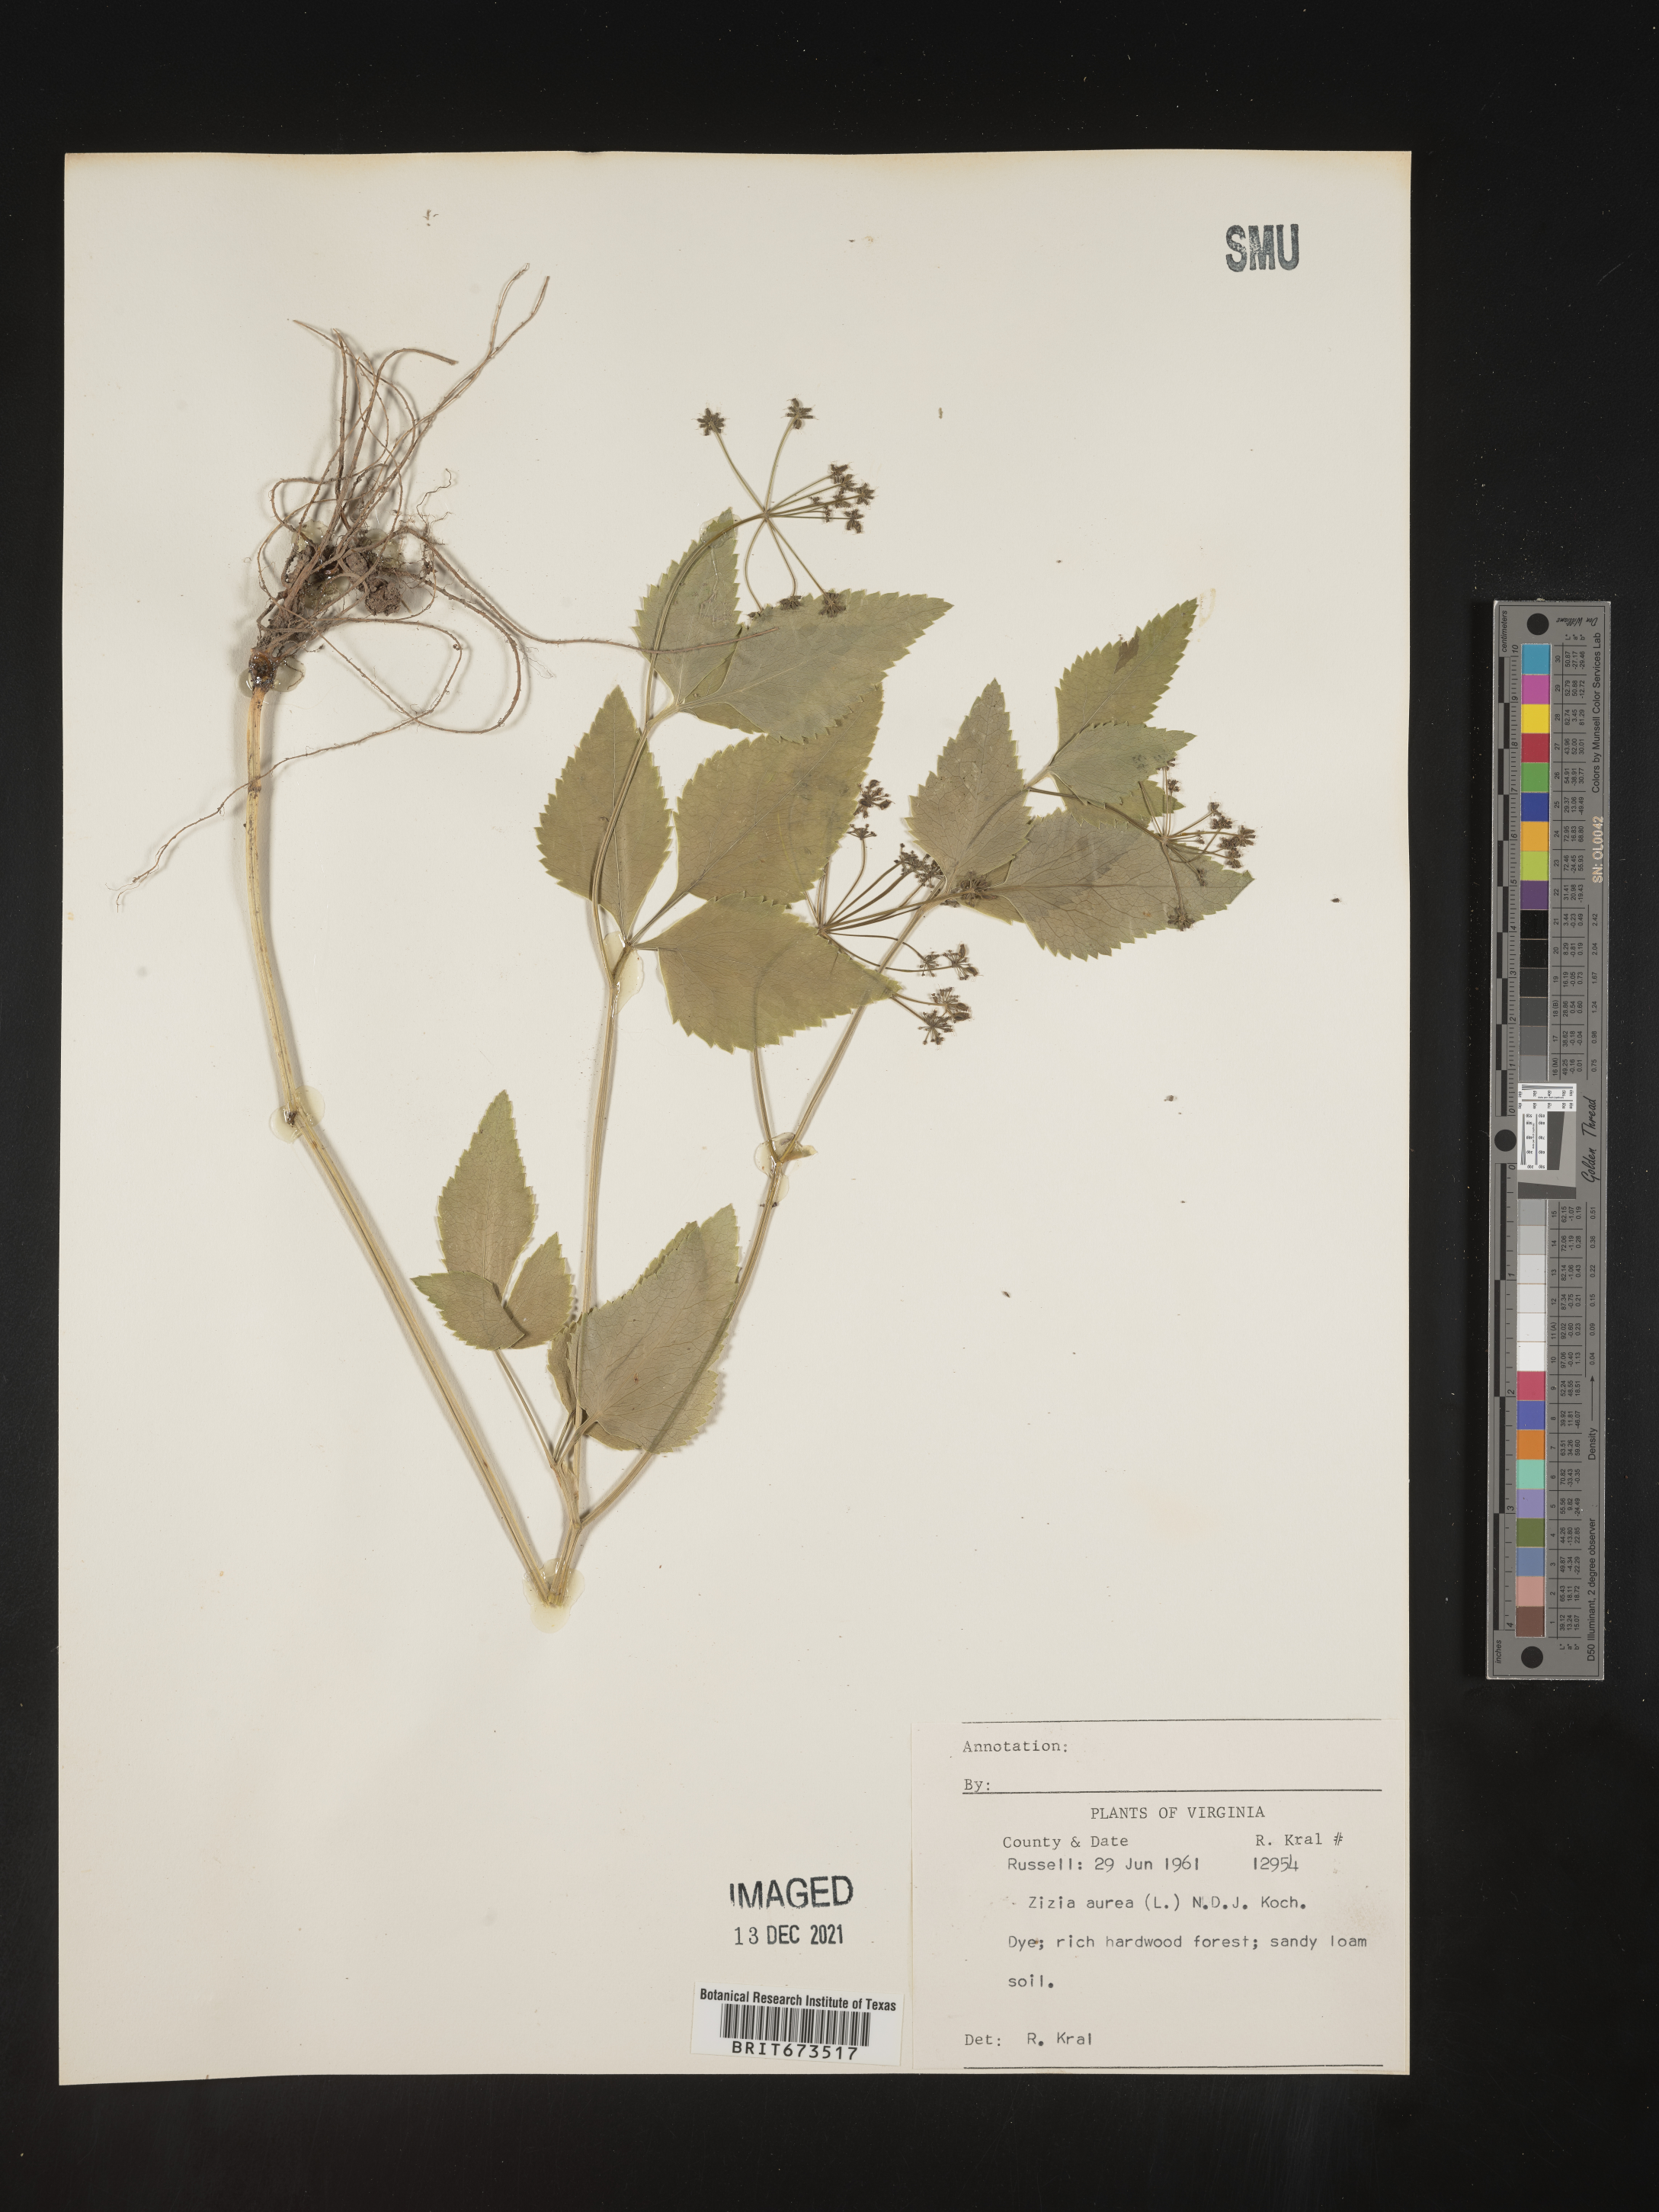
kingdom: Plantae
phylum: Tracheophyta
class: Magnoliopsida
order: Apiales
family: Apiaceae
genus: Zizia
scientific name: Zizia aurea
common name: Golden alexanders
